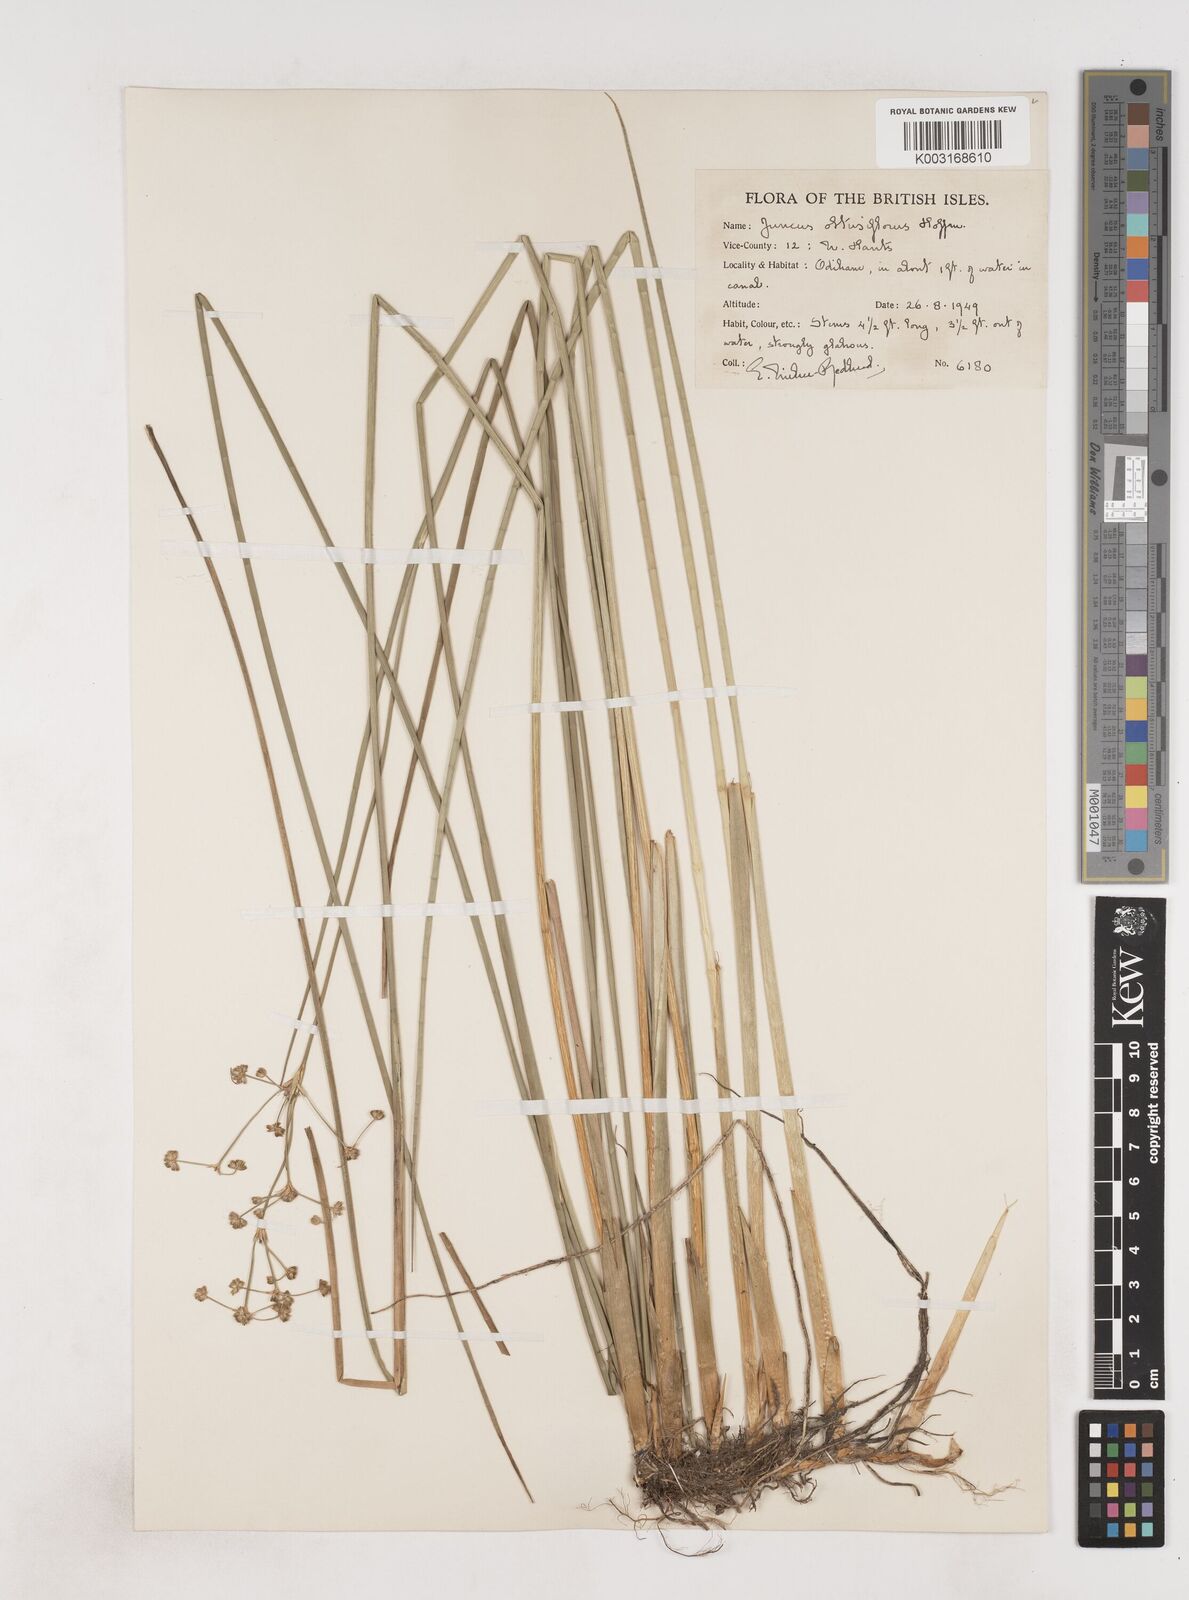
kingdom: Plantae
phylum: Tracheophyta
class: Liliopsida
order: Poales
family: Juncaceae
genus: Juncus
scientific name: Juncus subnodulosus
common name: Blunt-flowered rush
